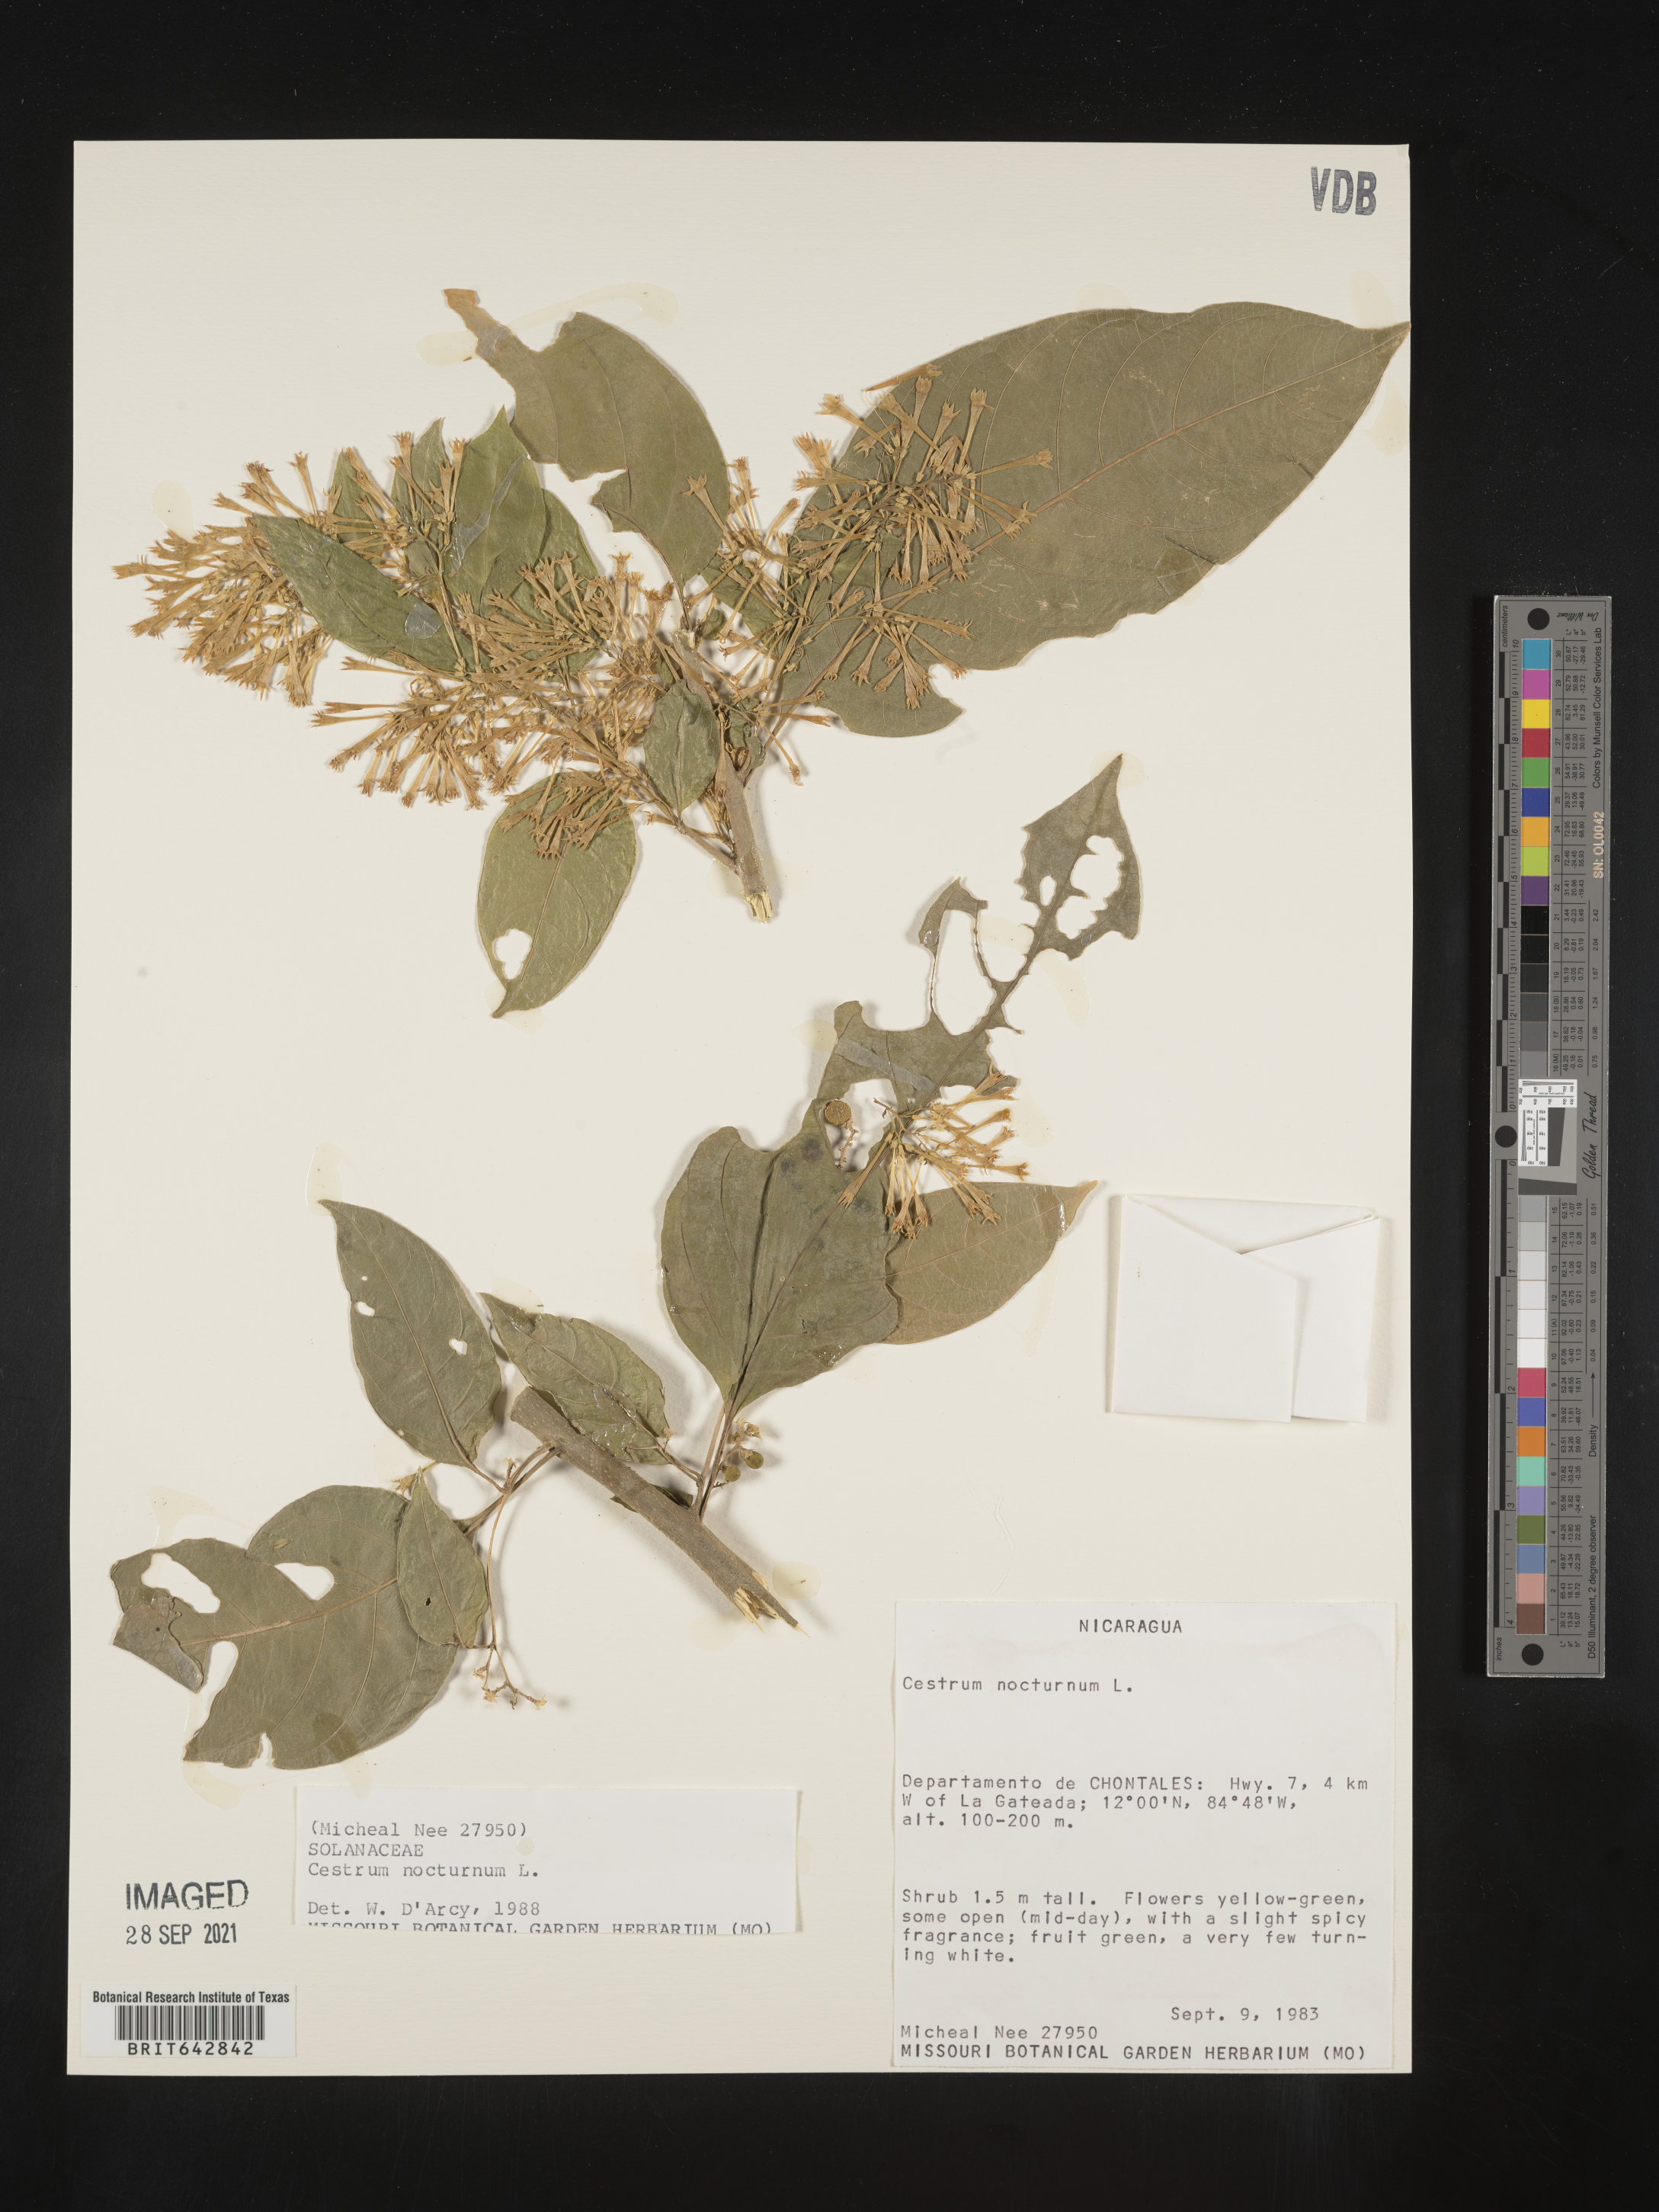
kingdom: Plantae
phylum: Tracheophyta
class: Magnoliopsida
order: Solanales
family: Solanaceae
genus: Cestrum
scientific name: Cestrum
